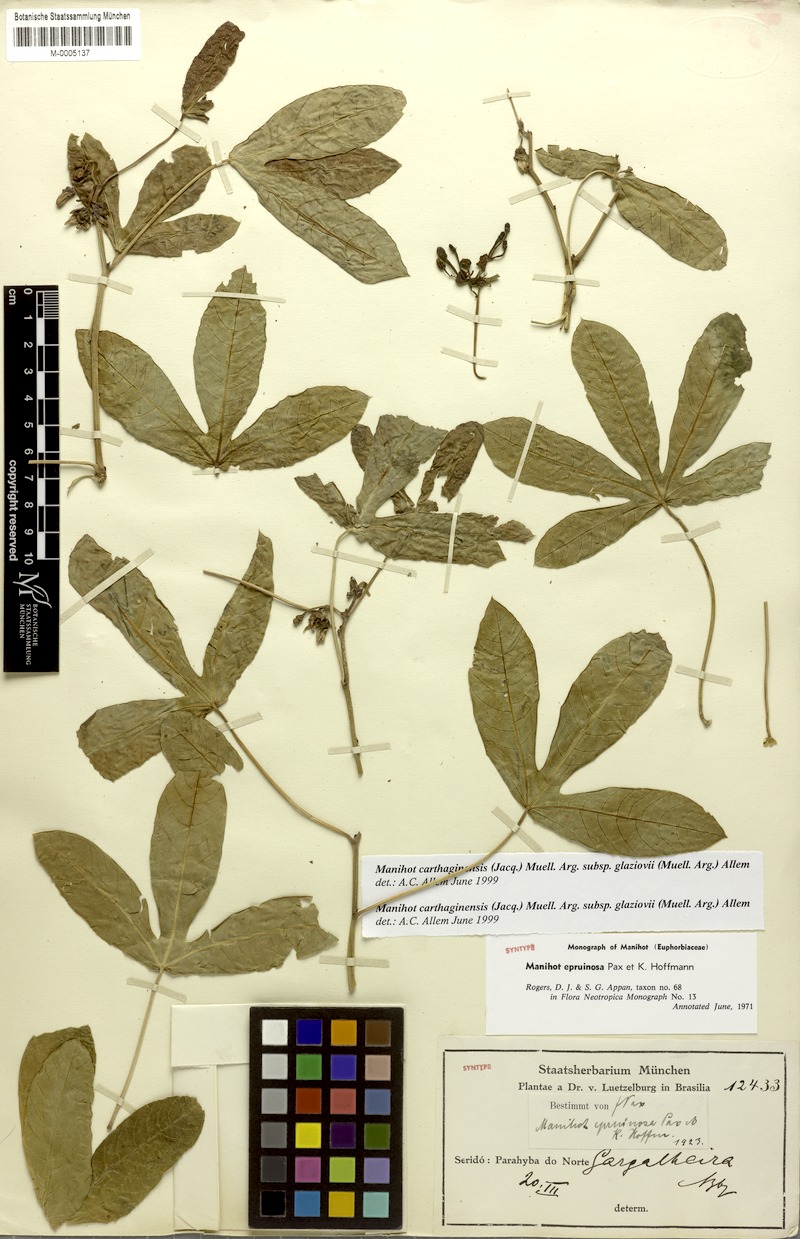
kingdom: Plantae
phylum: Tracheophyta
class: Magnoliopsida
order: Malpighiales
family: Euphorbiaceae
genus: Manihot
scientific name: Manihot epruinosa
